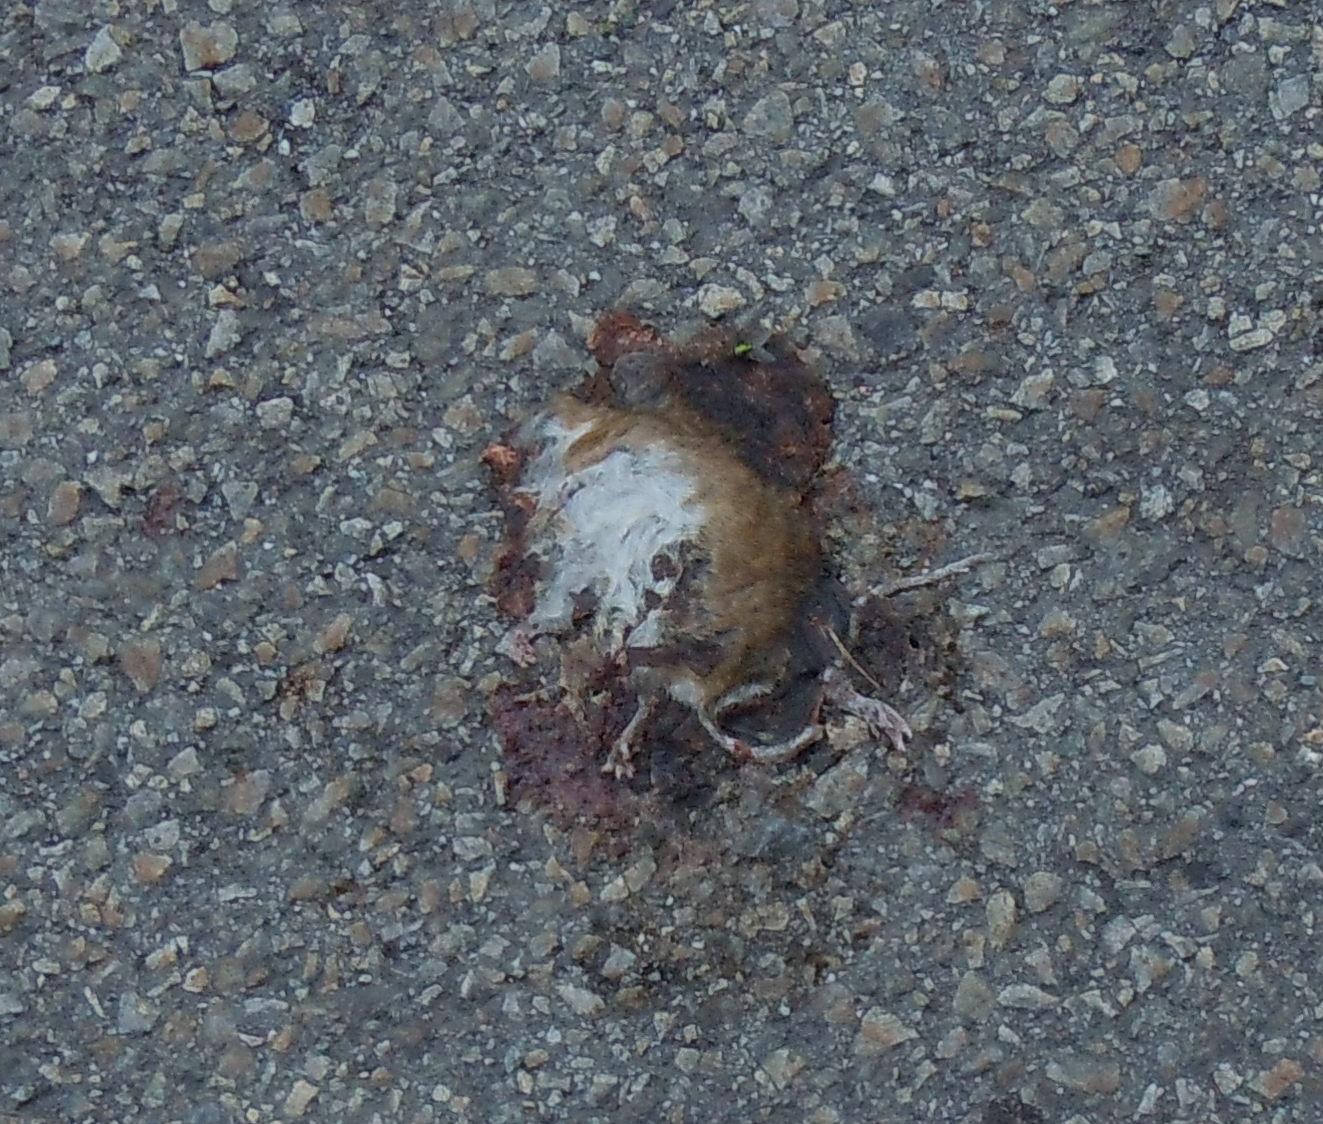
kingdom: Animalia
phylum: Chordata
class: Mammalia
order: Rodentia
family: Muridae
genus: Apodemus
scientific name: Apodemus
